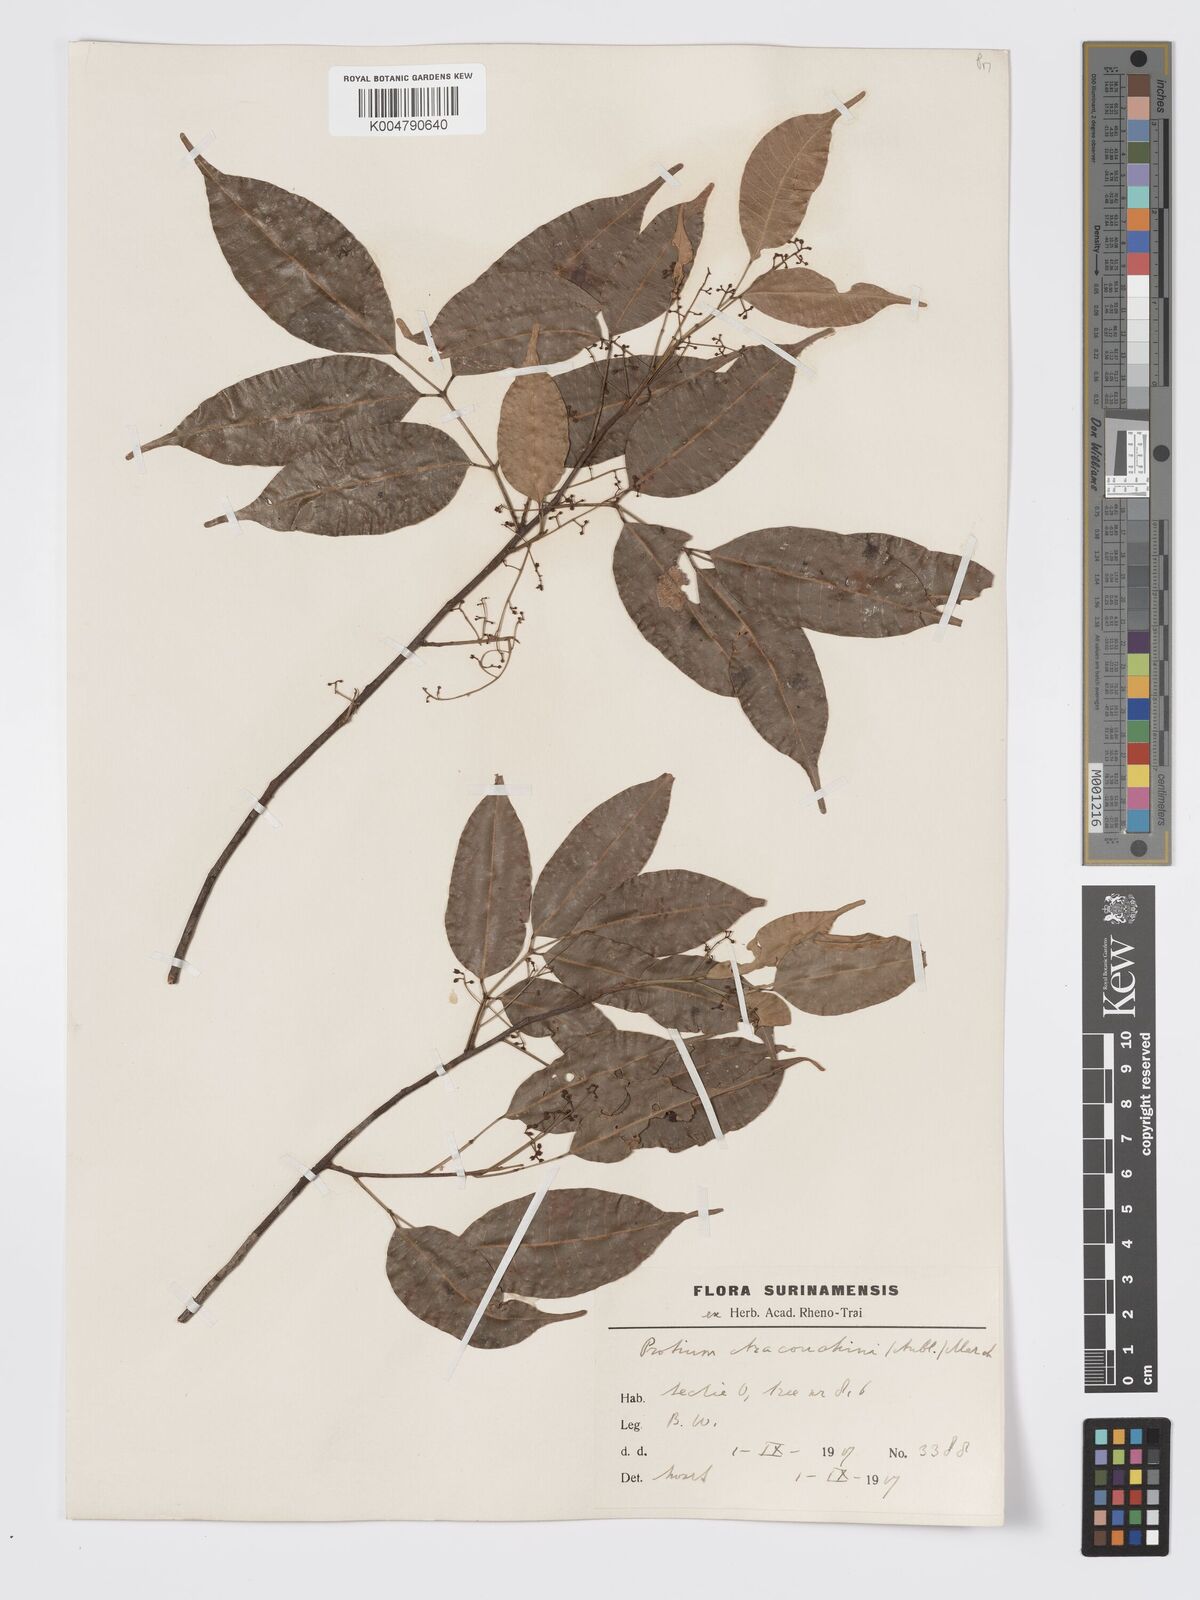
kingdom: Plantae
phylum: Tracheophyta
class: Magnoliopsida
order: Sapindales
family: Burseraceae
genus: Protium
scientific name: Protium aracouchini
